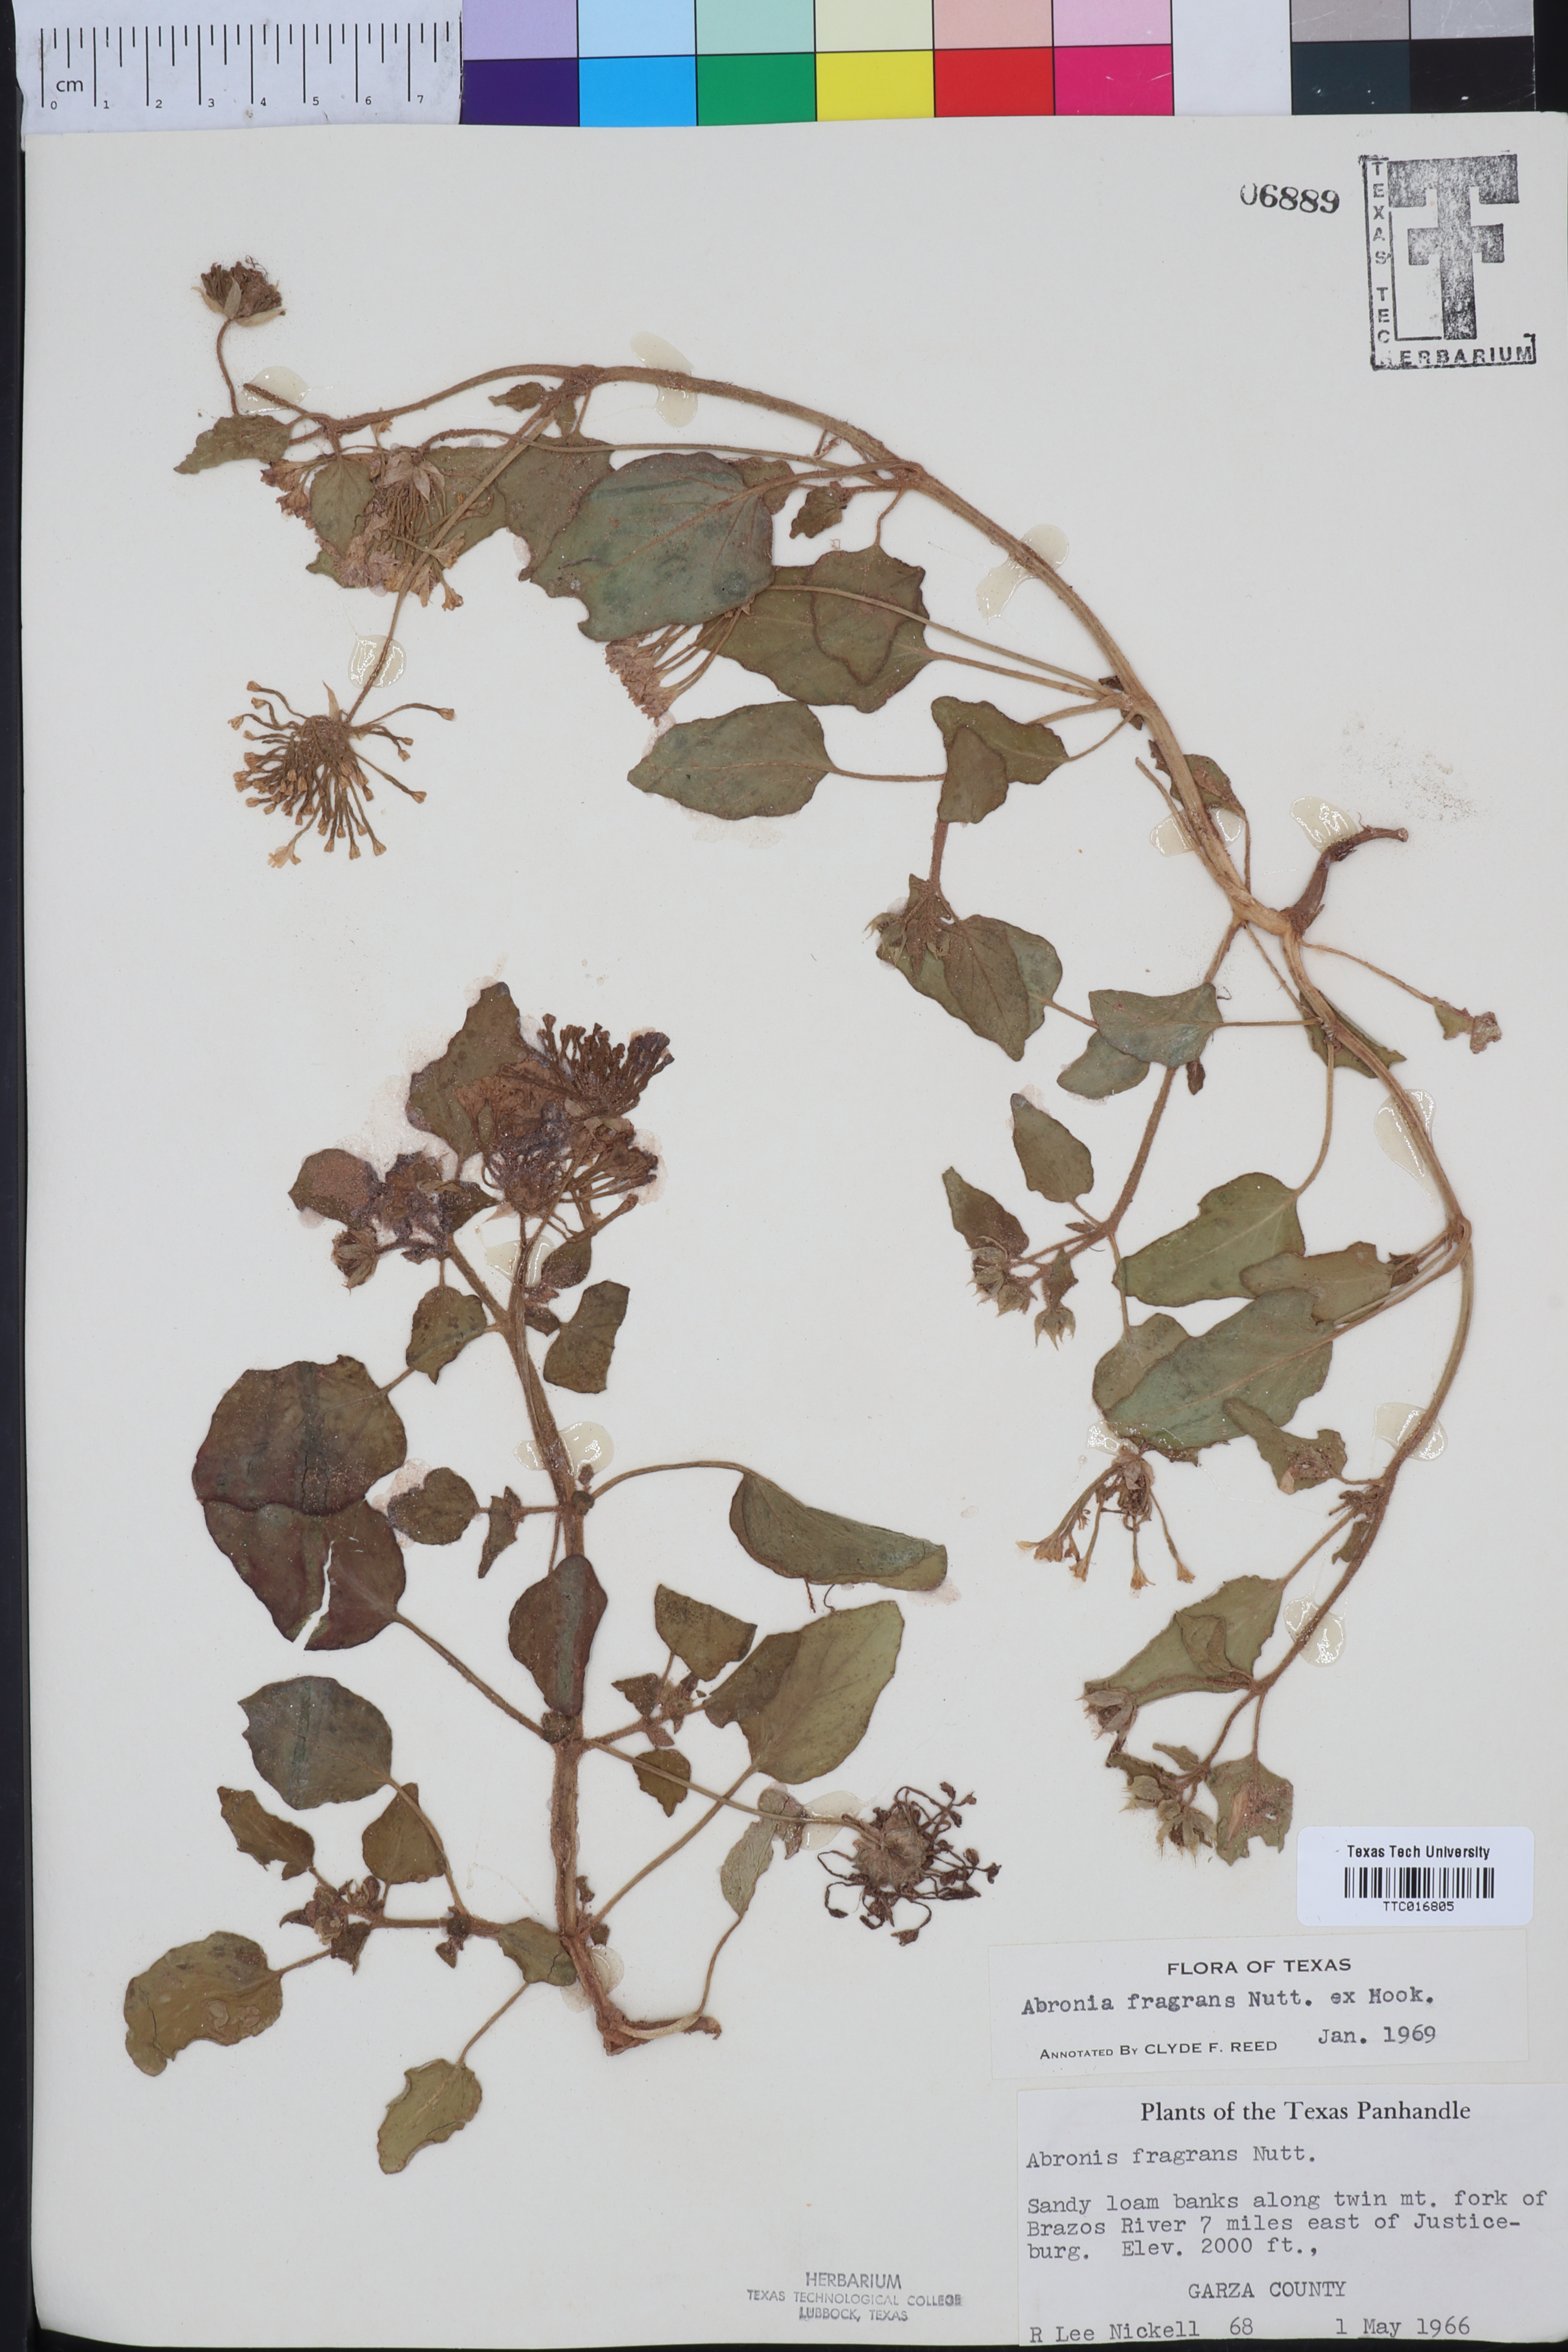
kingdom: Plantae
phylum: Tracheophyta
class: Magnoliopsida
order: Caryophyllales
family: Nyctaginaceae
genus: Abronia
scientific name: Abronia fragrans
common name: Fragrant sand-verbena
